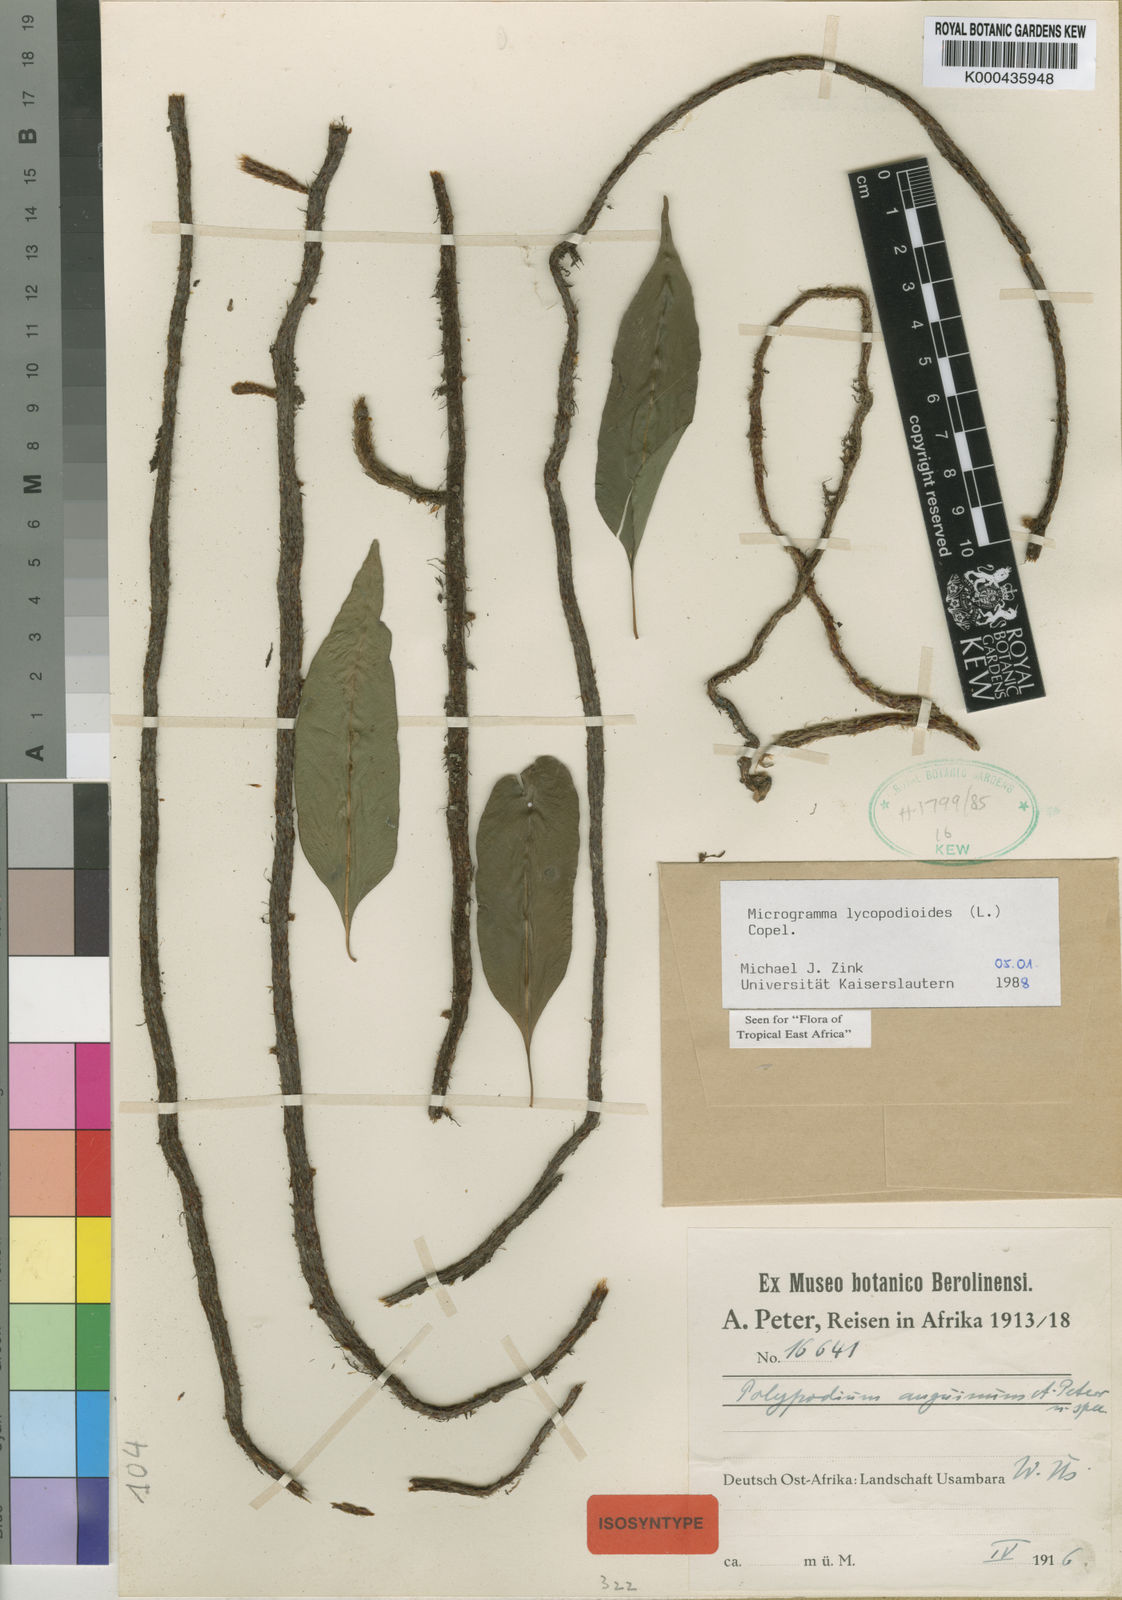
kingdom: Plantae
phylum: Tracheophyta
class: Polypodiopsida
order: Polypodiales
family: Polypodiaceae
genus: Microgramma
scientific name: Microgramma
